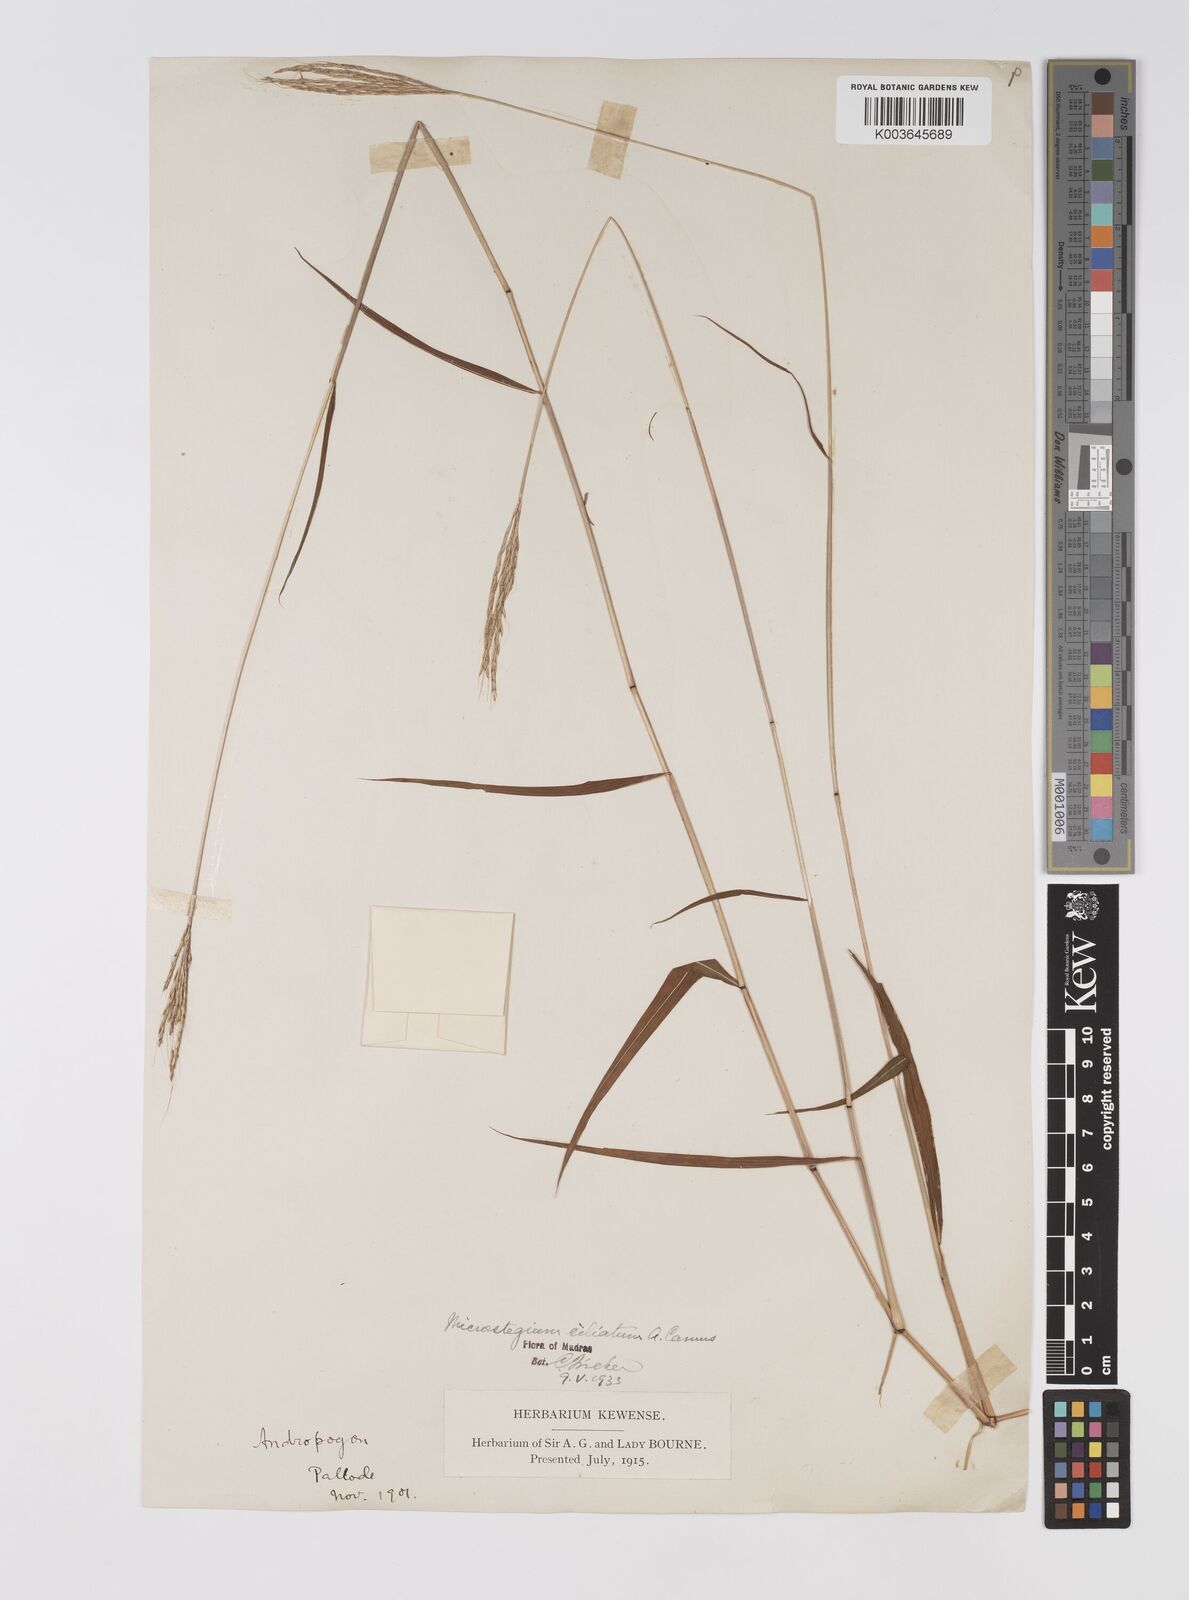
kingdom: Plantae
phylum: Tracheophyta
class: Liliopsida
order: Poales
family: Poaceae
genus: Microstegium
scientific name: Microstegium fasciculatum
